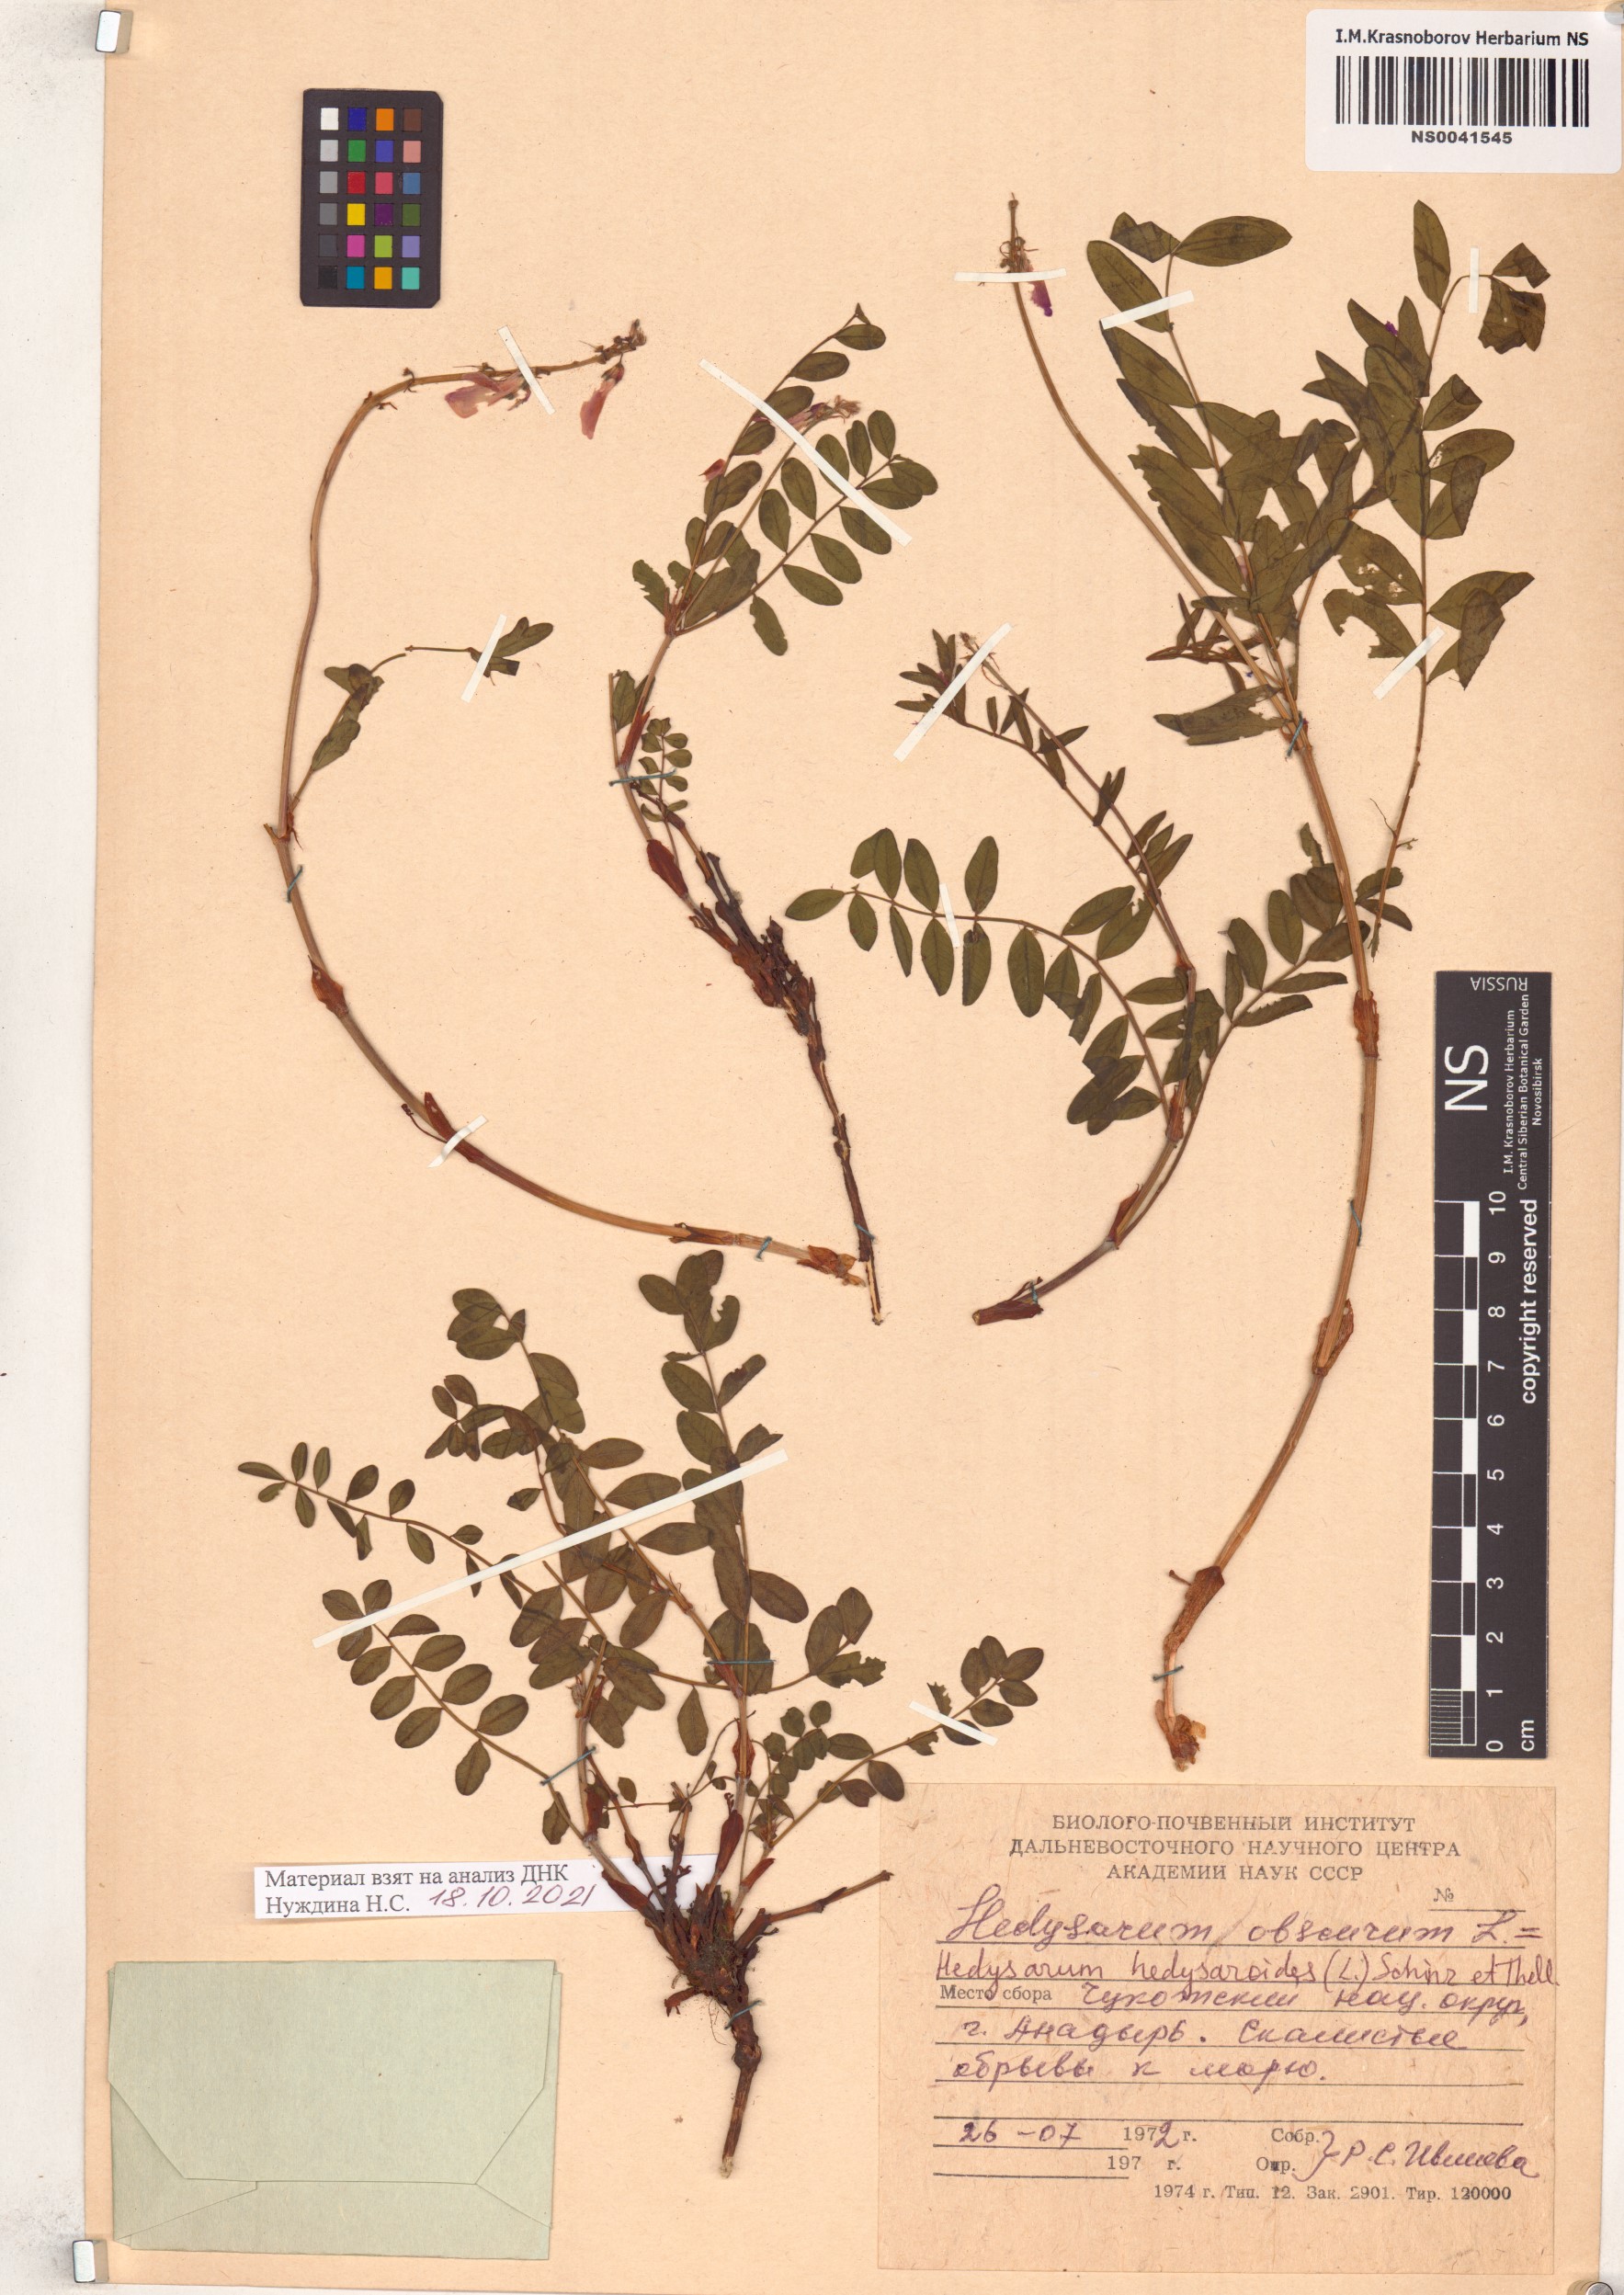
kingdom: Plantae
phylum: Tracheophyta
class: Magnoliopsida
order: Fabales
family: Fabaceae
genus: Hedysarum
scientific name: Hedysarum hedysaroides
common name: Alpine french-honeysuckle
